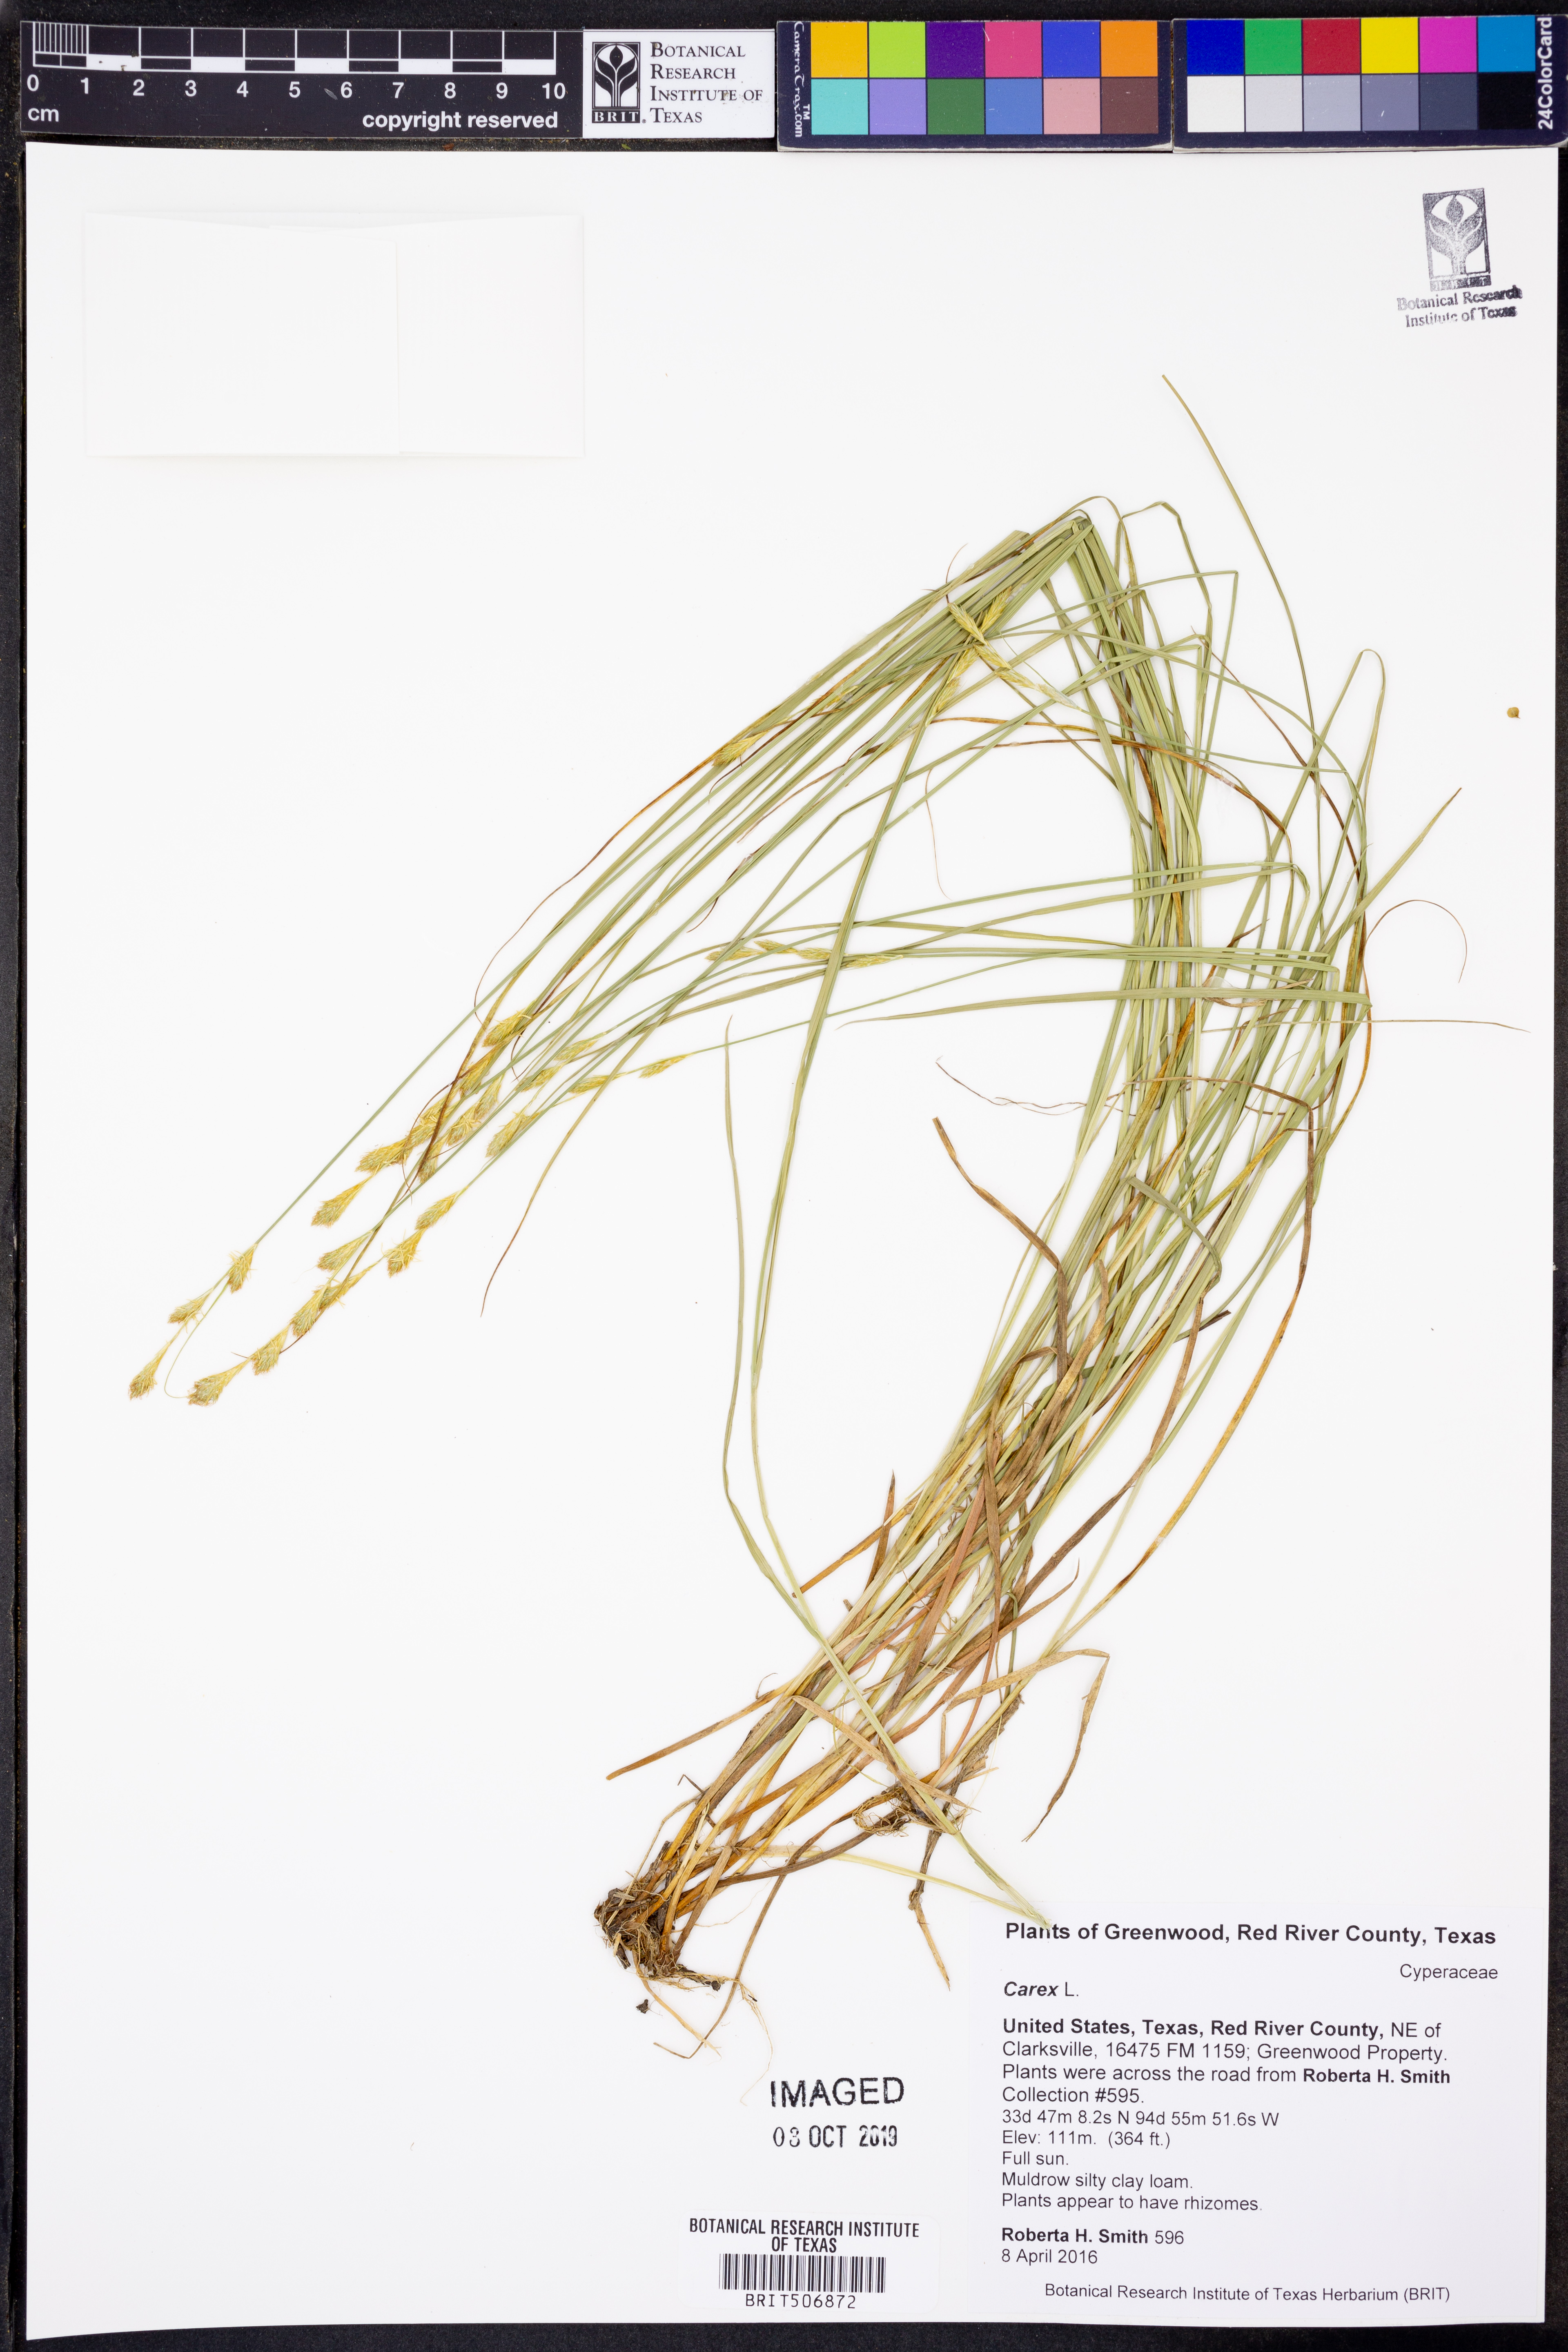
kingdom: Plantae
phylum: Tracheophyta
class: Liliopsida
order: Poales
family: Cyperaceae
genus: Carex
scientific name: Carex
